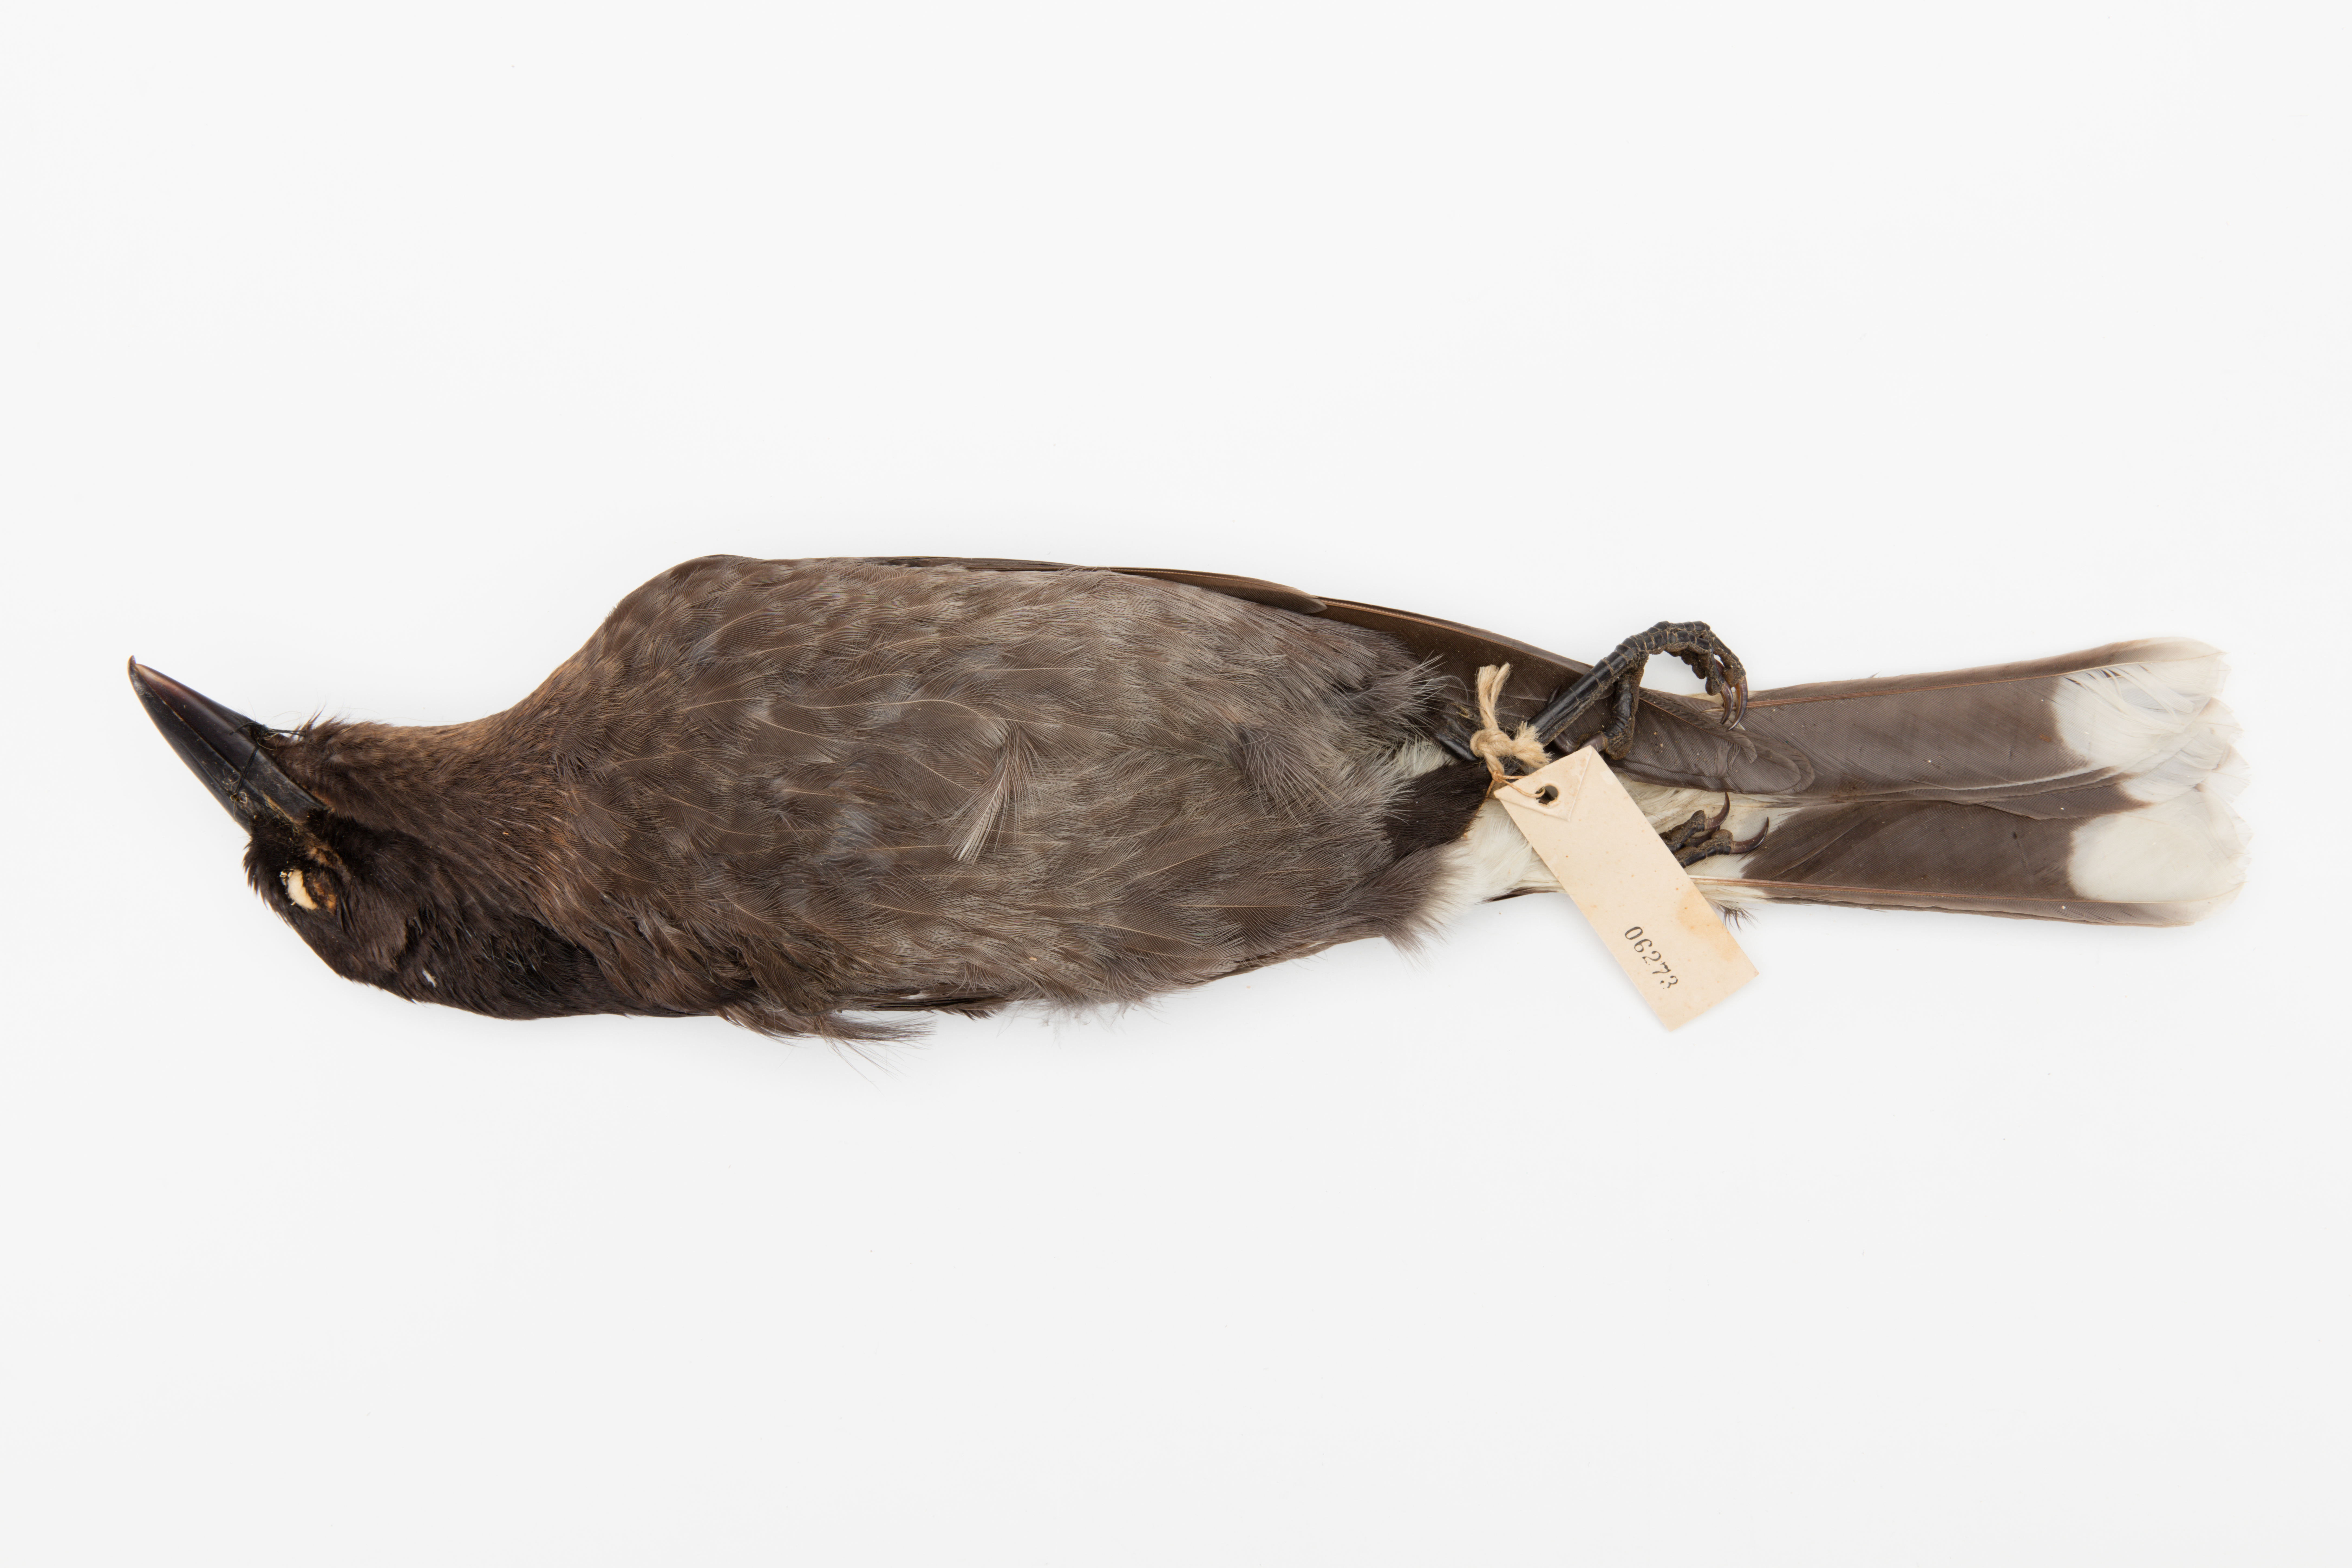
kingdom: Animalia
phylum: Chordata
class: Aves
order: Passeriformes
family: Cracticidae
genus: Strepera
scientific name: Strepera graculina
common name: Pied currawong
